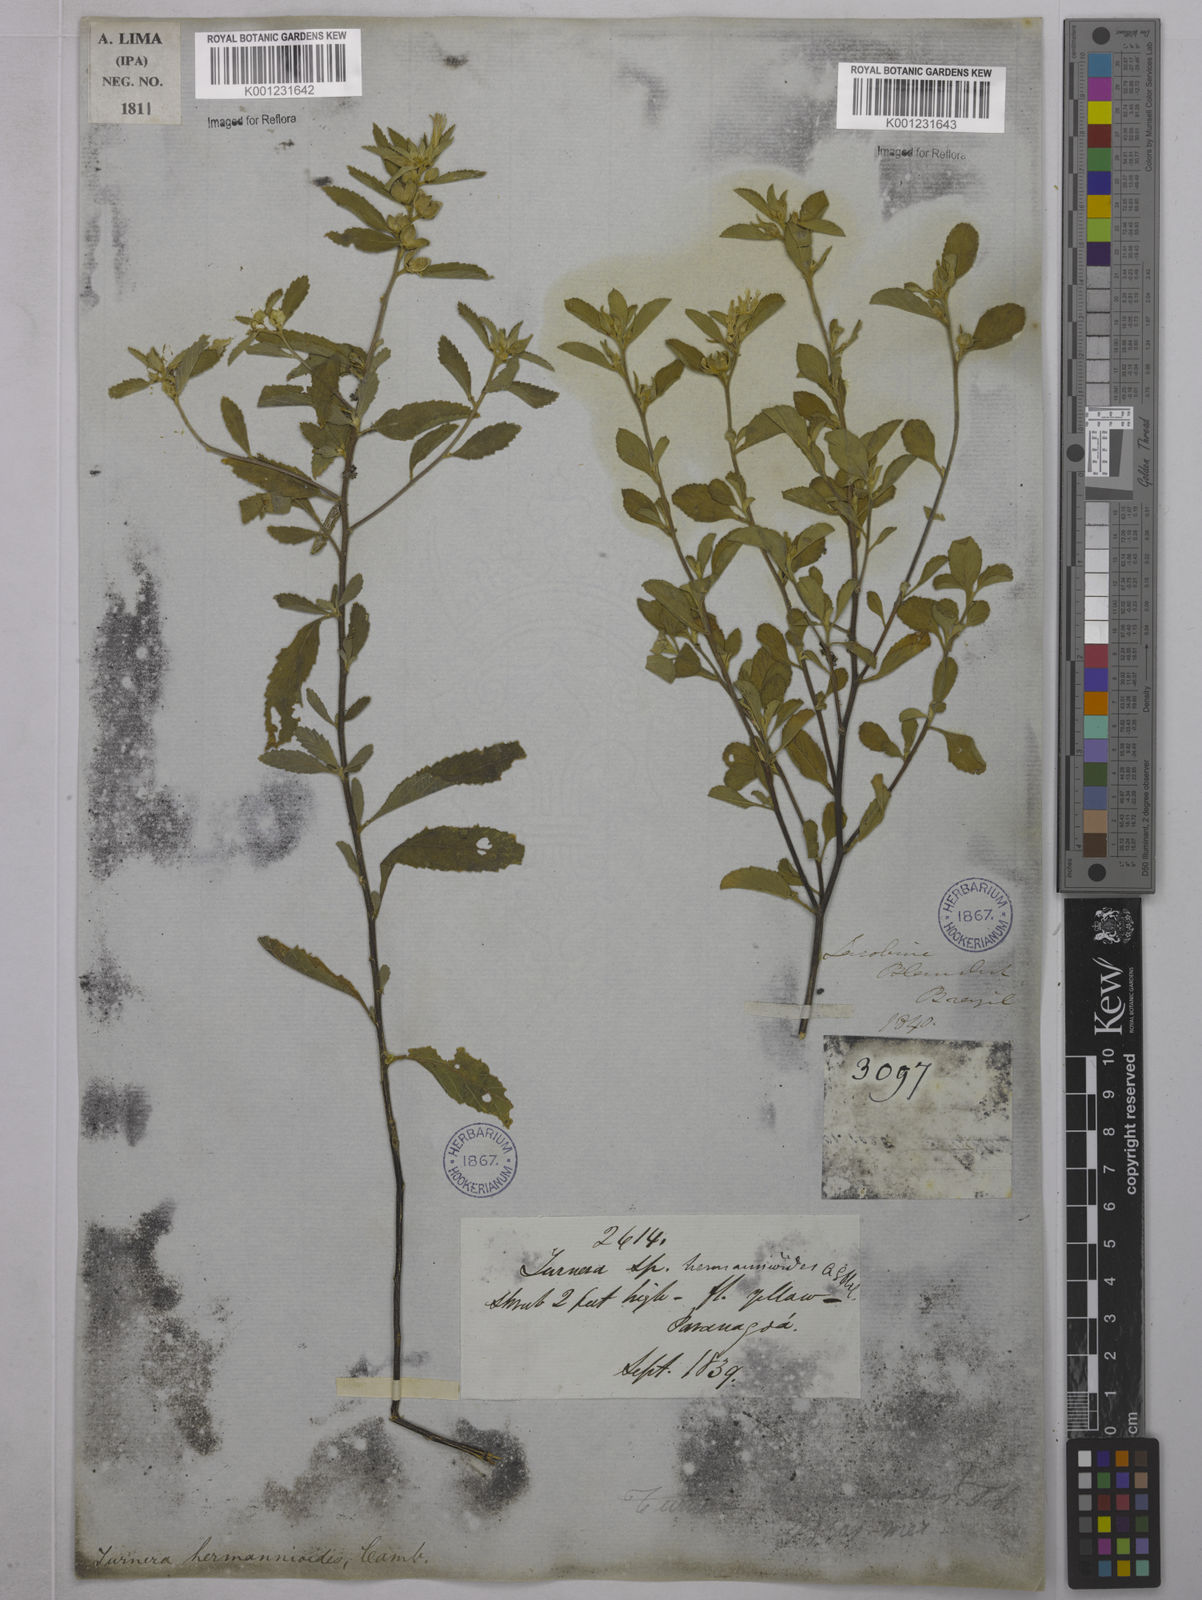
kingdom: Plantae
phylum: Tracheophyta
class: Magnoliopsida
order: Malpighiales
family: Turneraceae
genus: Turnera
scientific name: Turnera hermannioides
